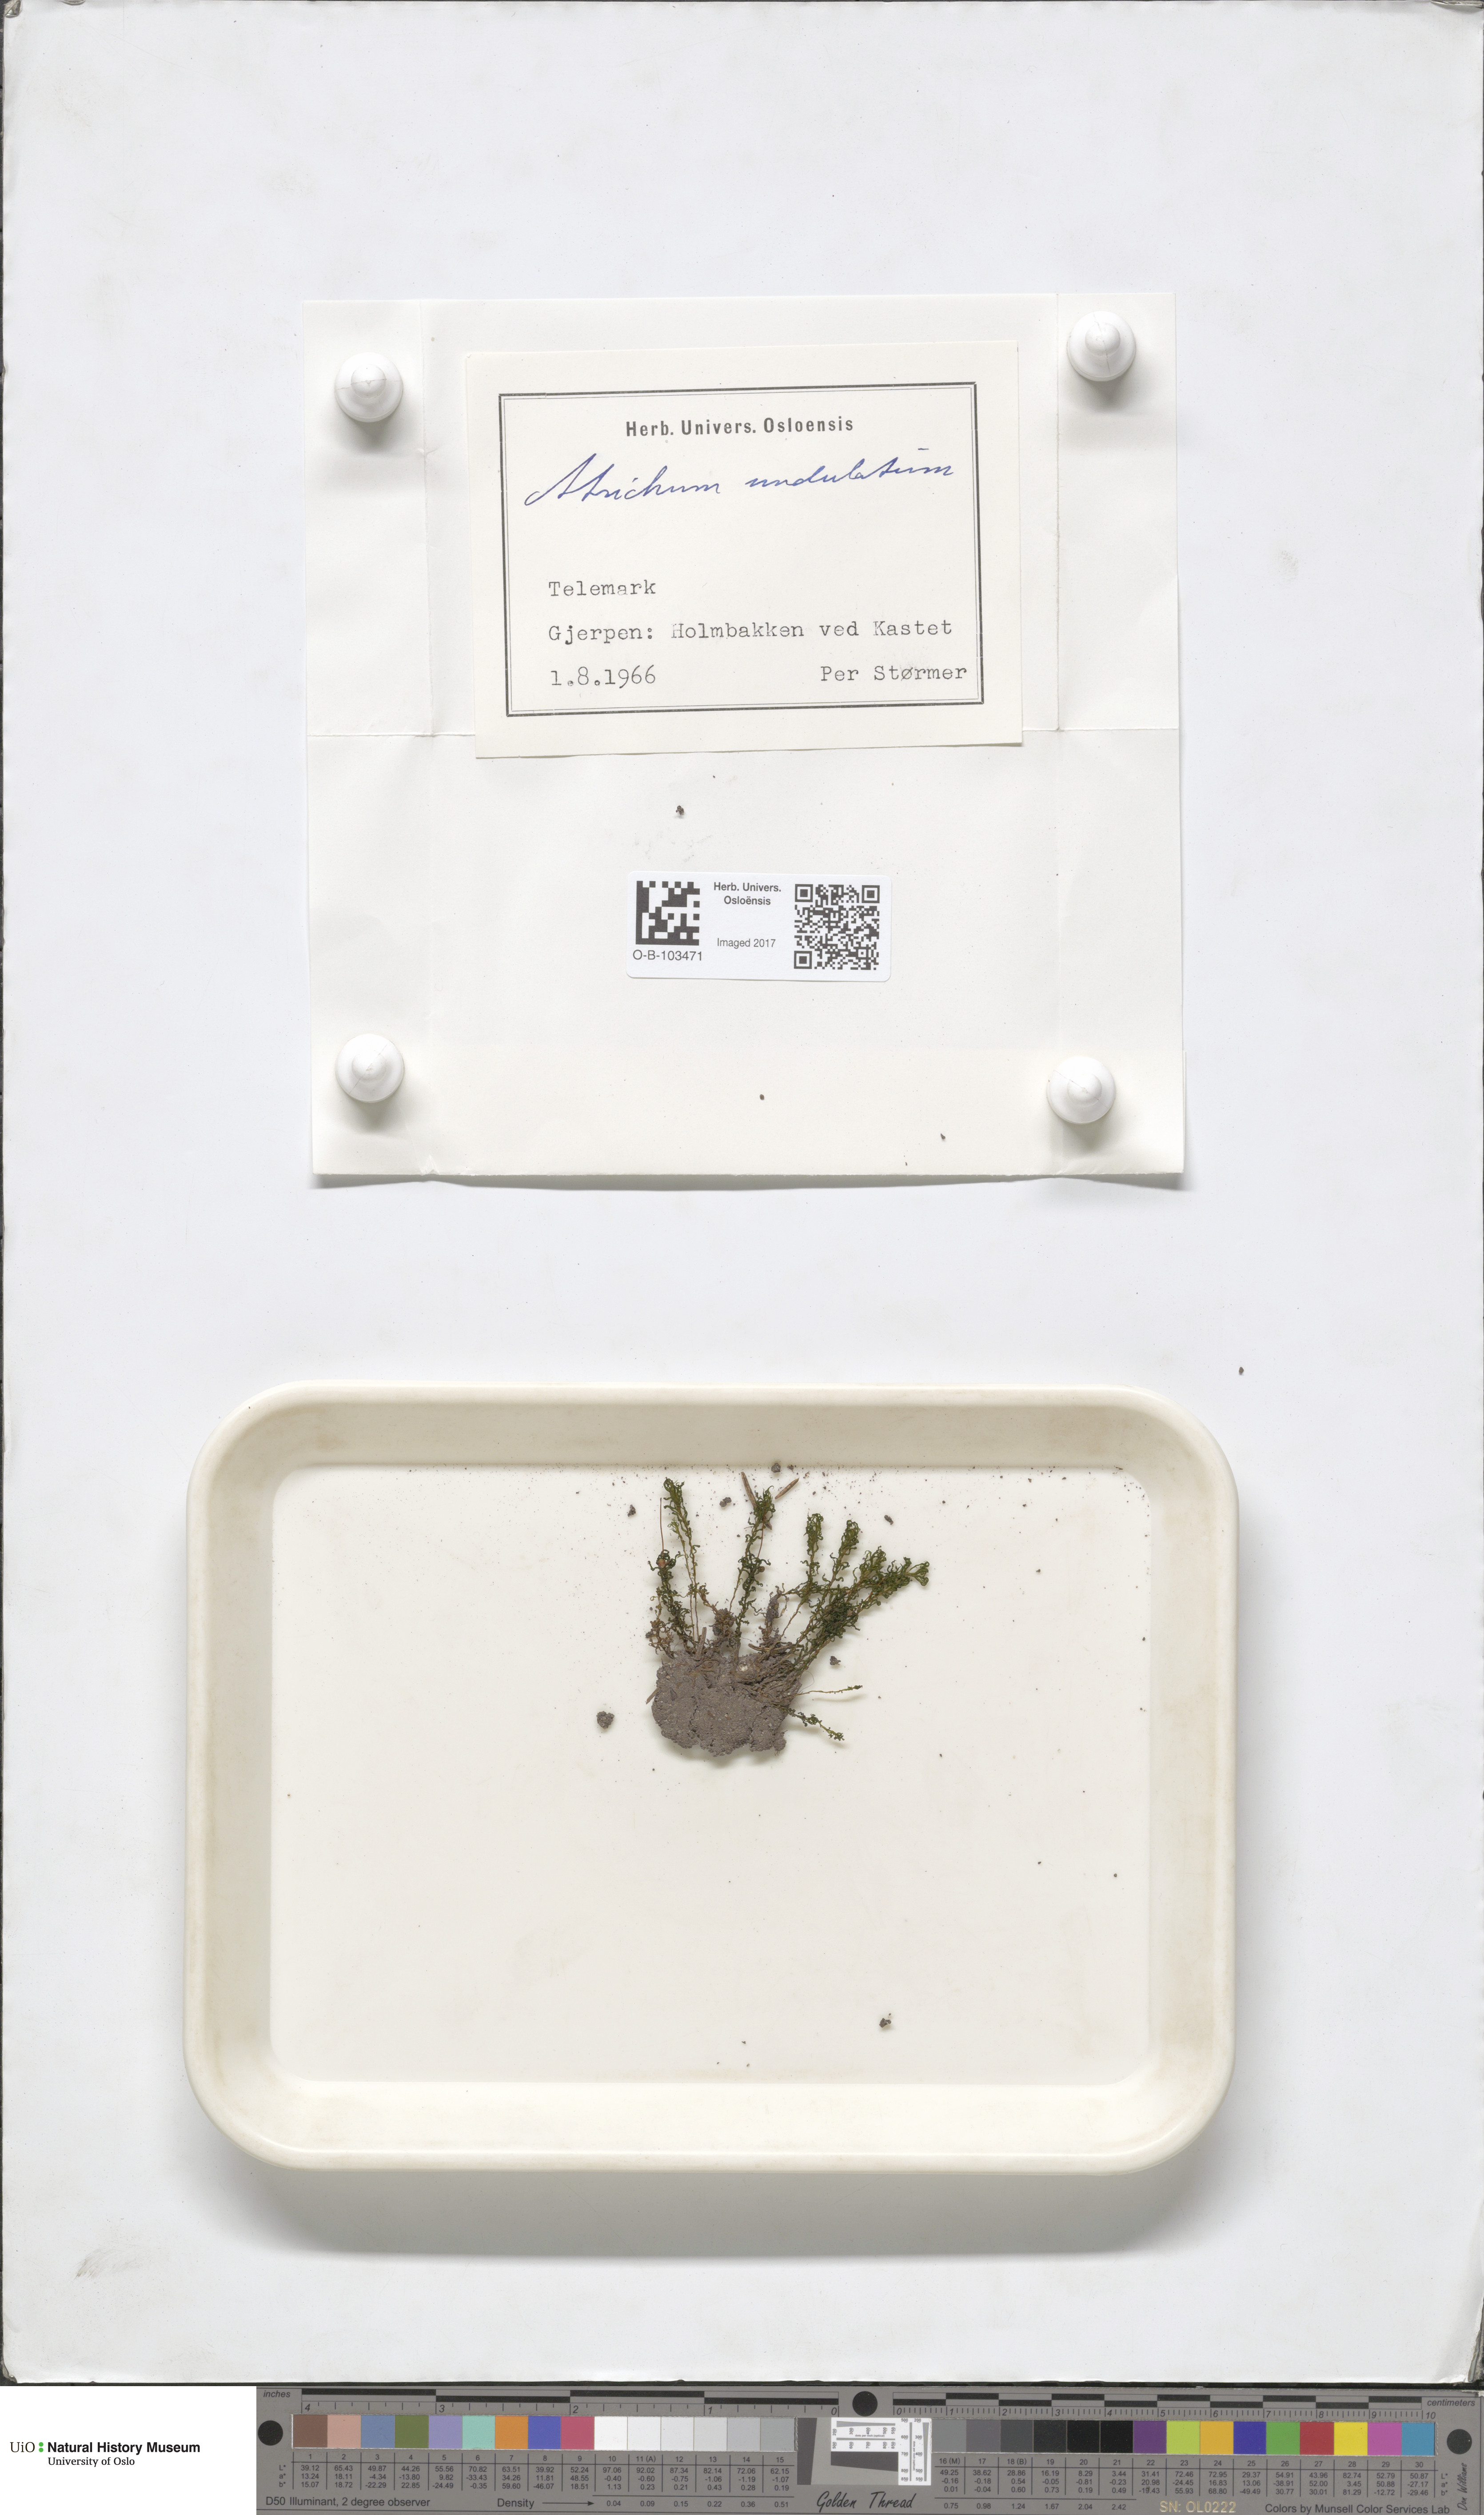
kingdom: Plantae
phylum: Bryophyta
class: Polytrichopsida
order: Polytrichales
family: Polytrichaceae
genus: Atrichum
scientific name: Atrichum undulatum
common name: Common smoothcap
